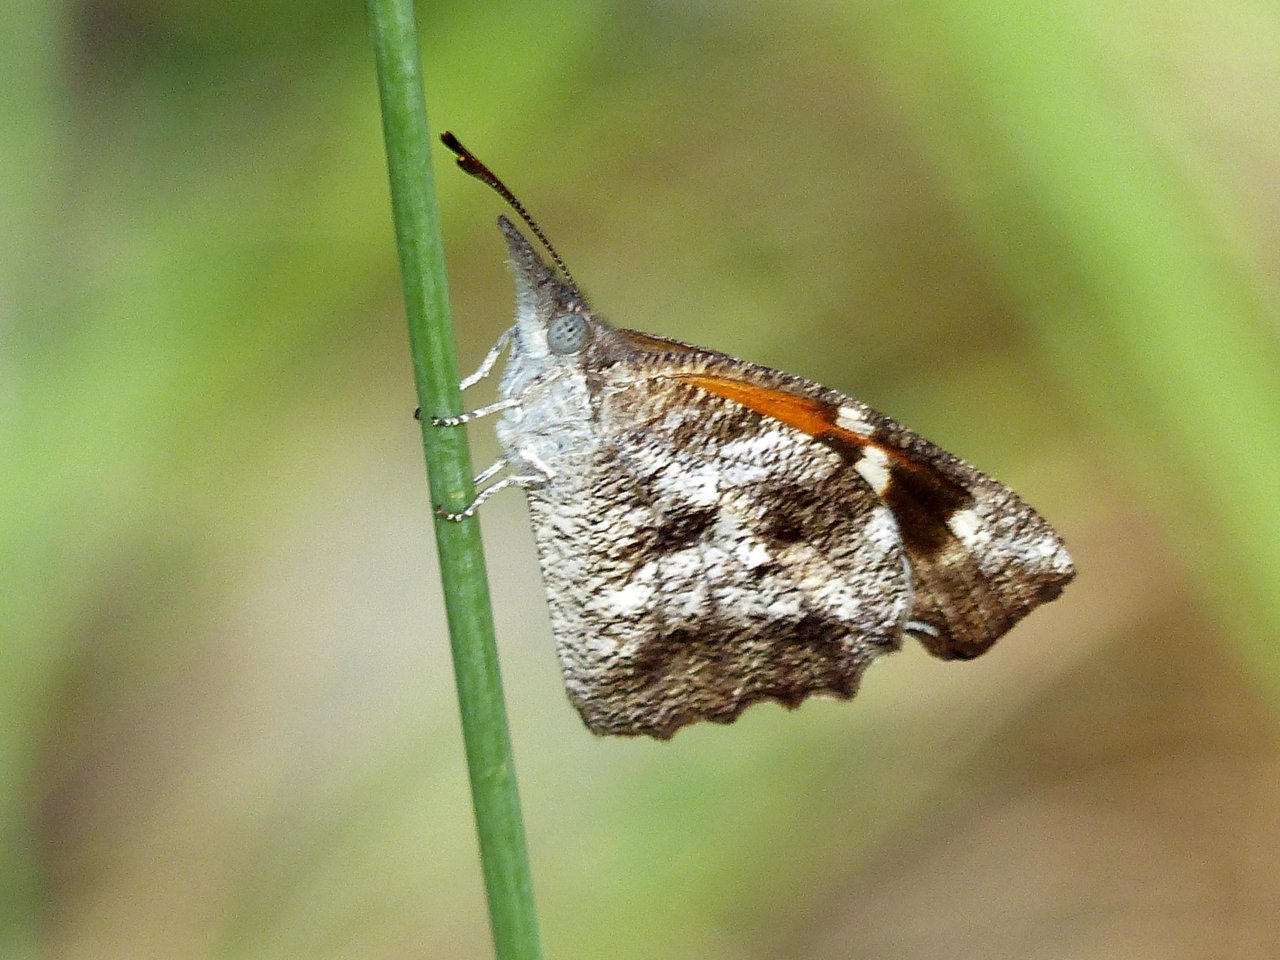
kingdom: Animalia
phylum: Arthropoda
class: Insecta
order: Lepidoptera
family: Nymphalidae
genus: Libytheana
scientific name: Libytheana carinenta
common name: American Snout
